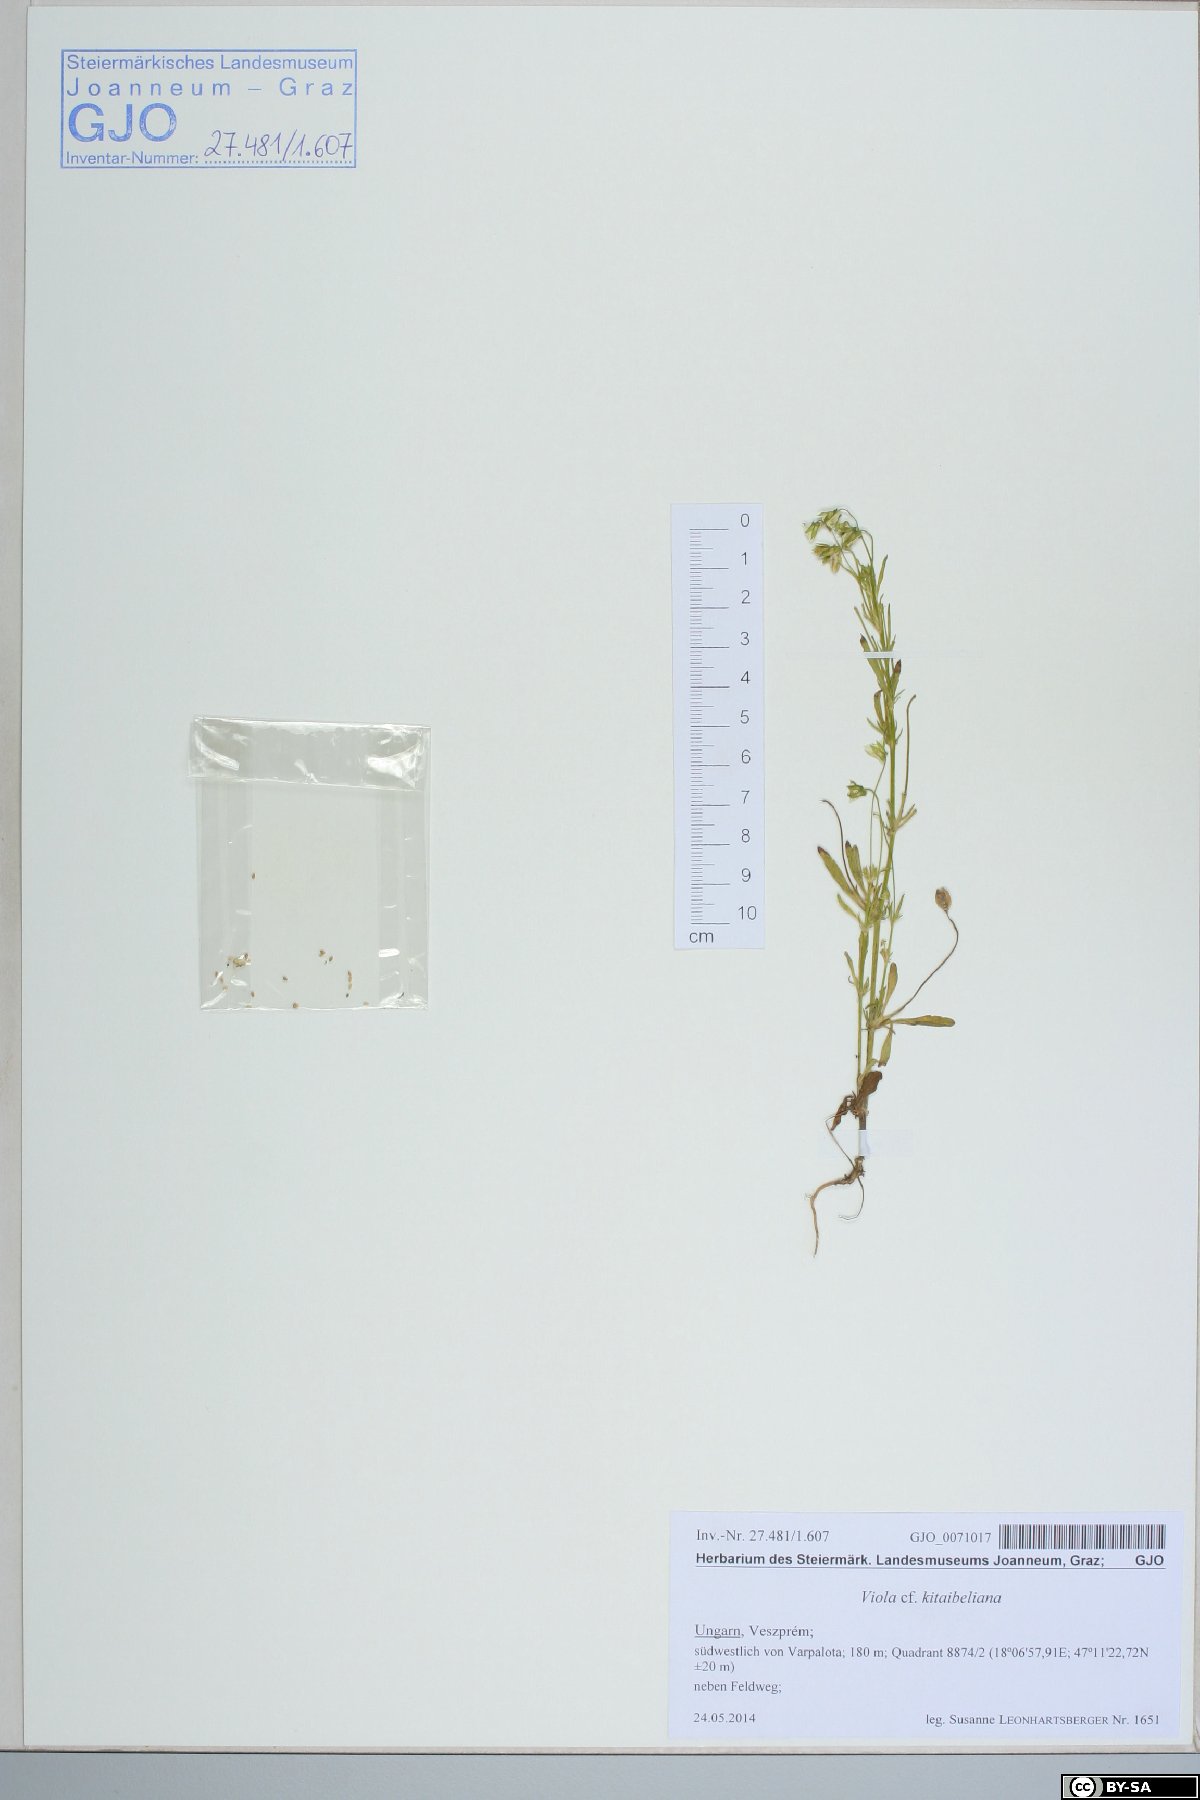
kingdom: Plantae
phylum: Tracheophyta
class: Magnoliopsida
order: Malpighiales
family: Violaceae
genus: Viola
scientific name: Viola kitaibeliana
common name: Dwarf pansy
